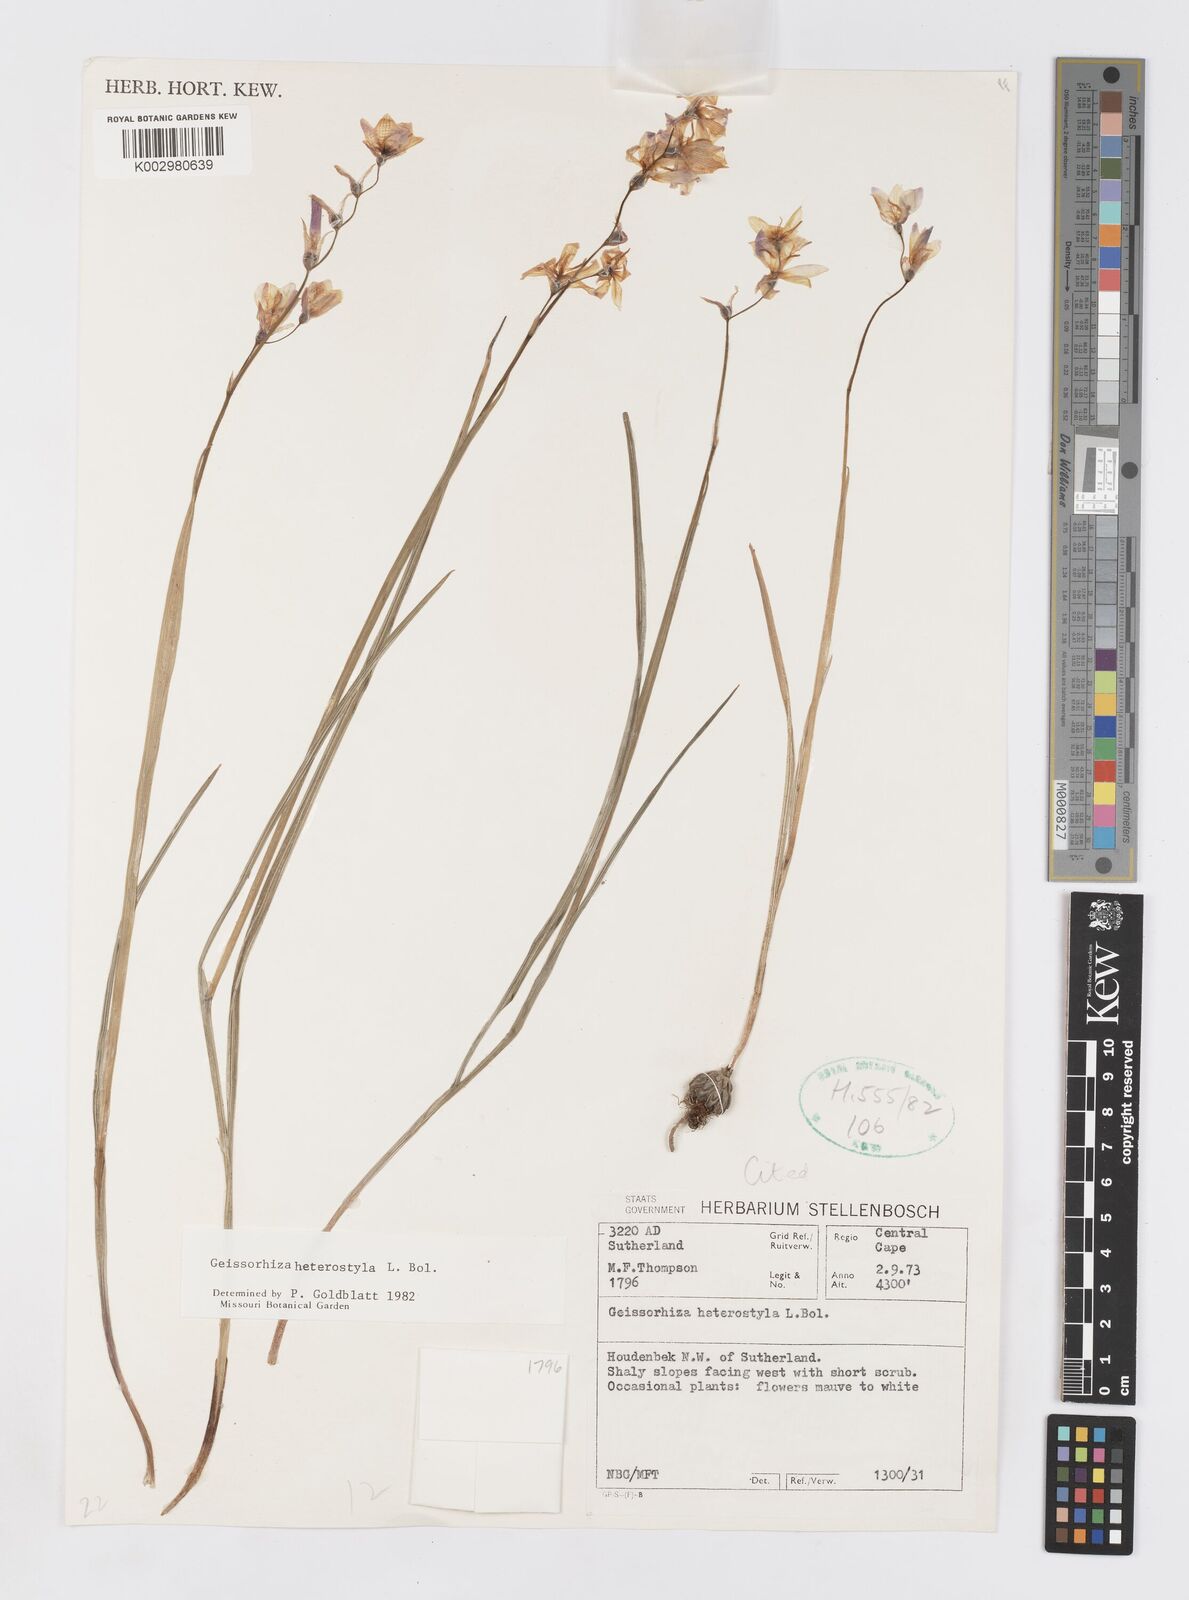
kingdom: Plantae
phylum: Tracheophyta
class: Liliopsida
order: Asparagales
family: Iridaceae
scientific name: Iridaceae
